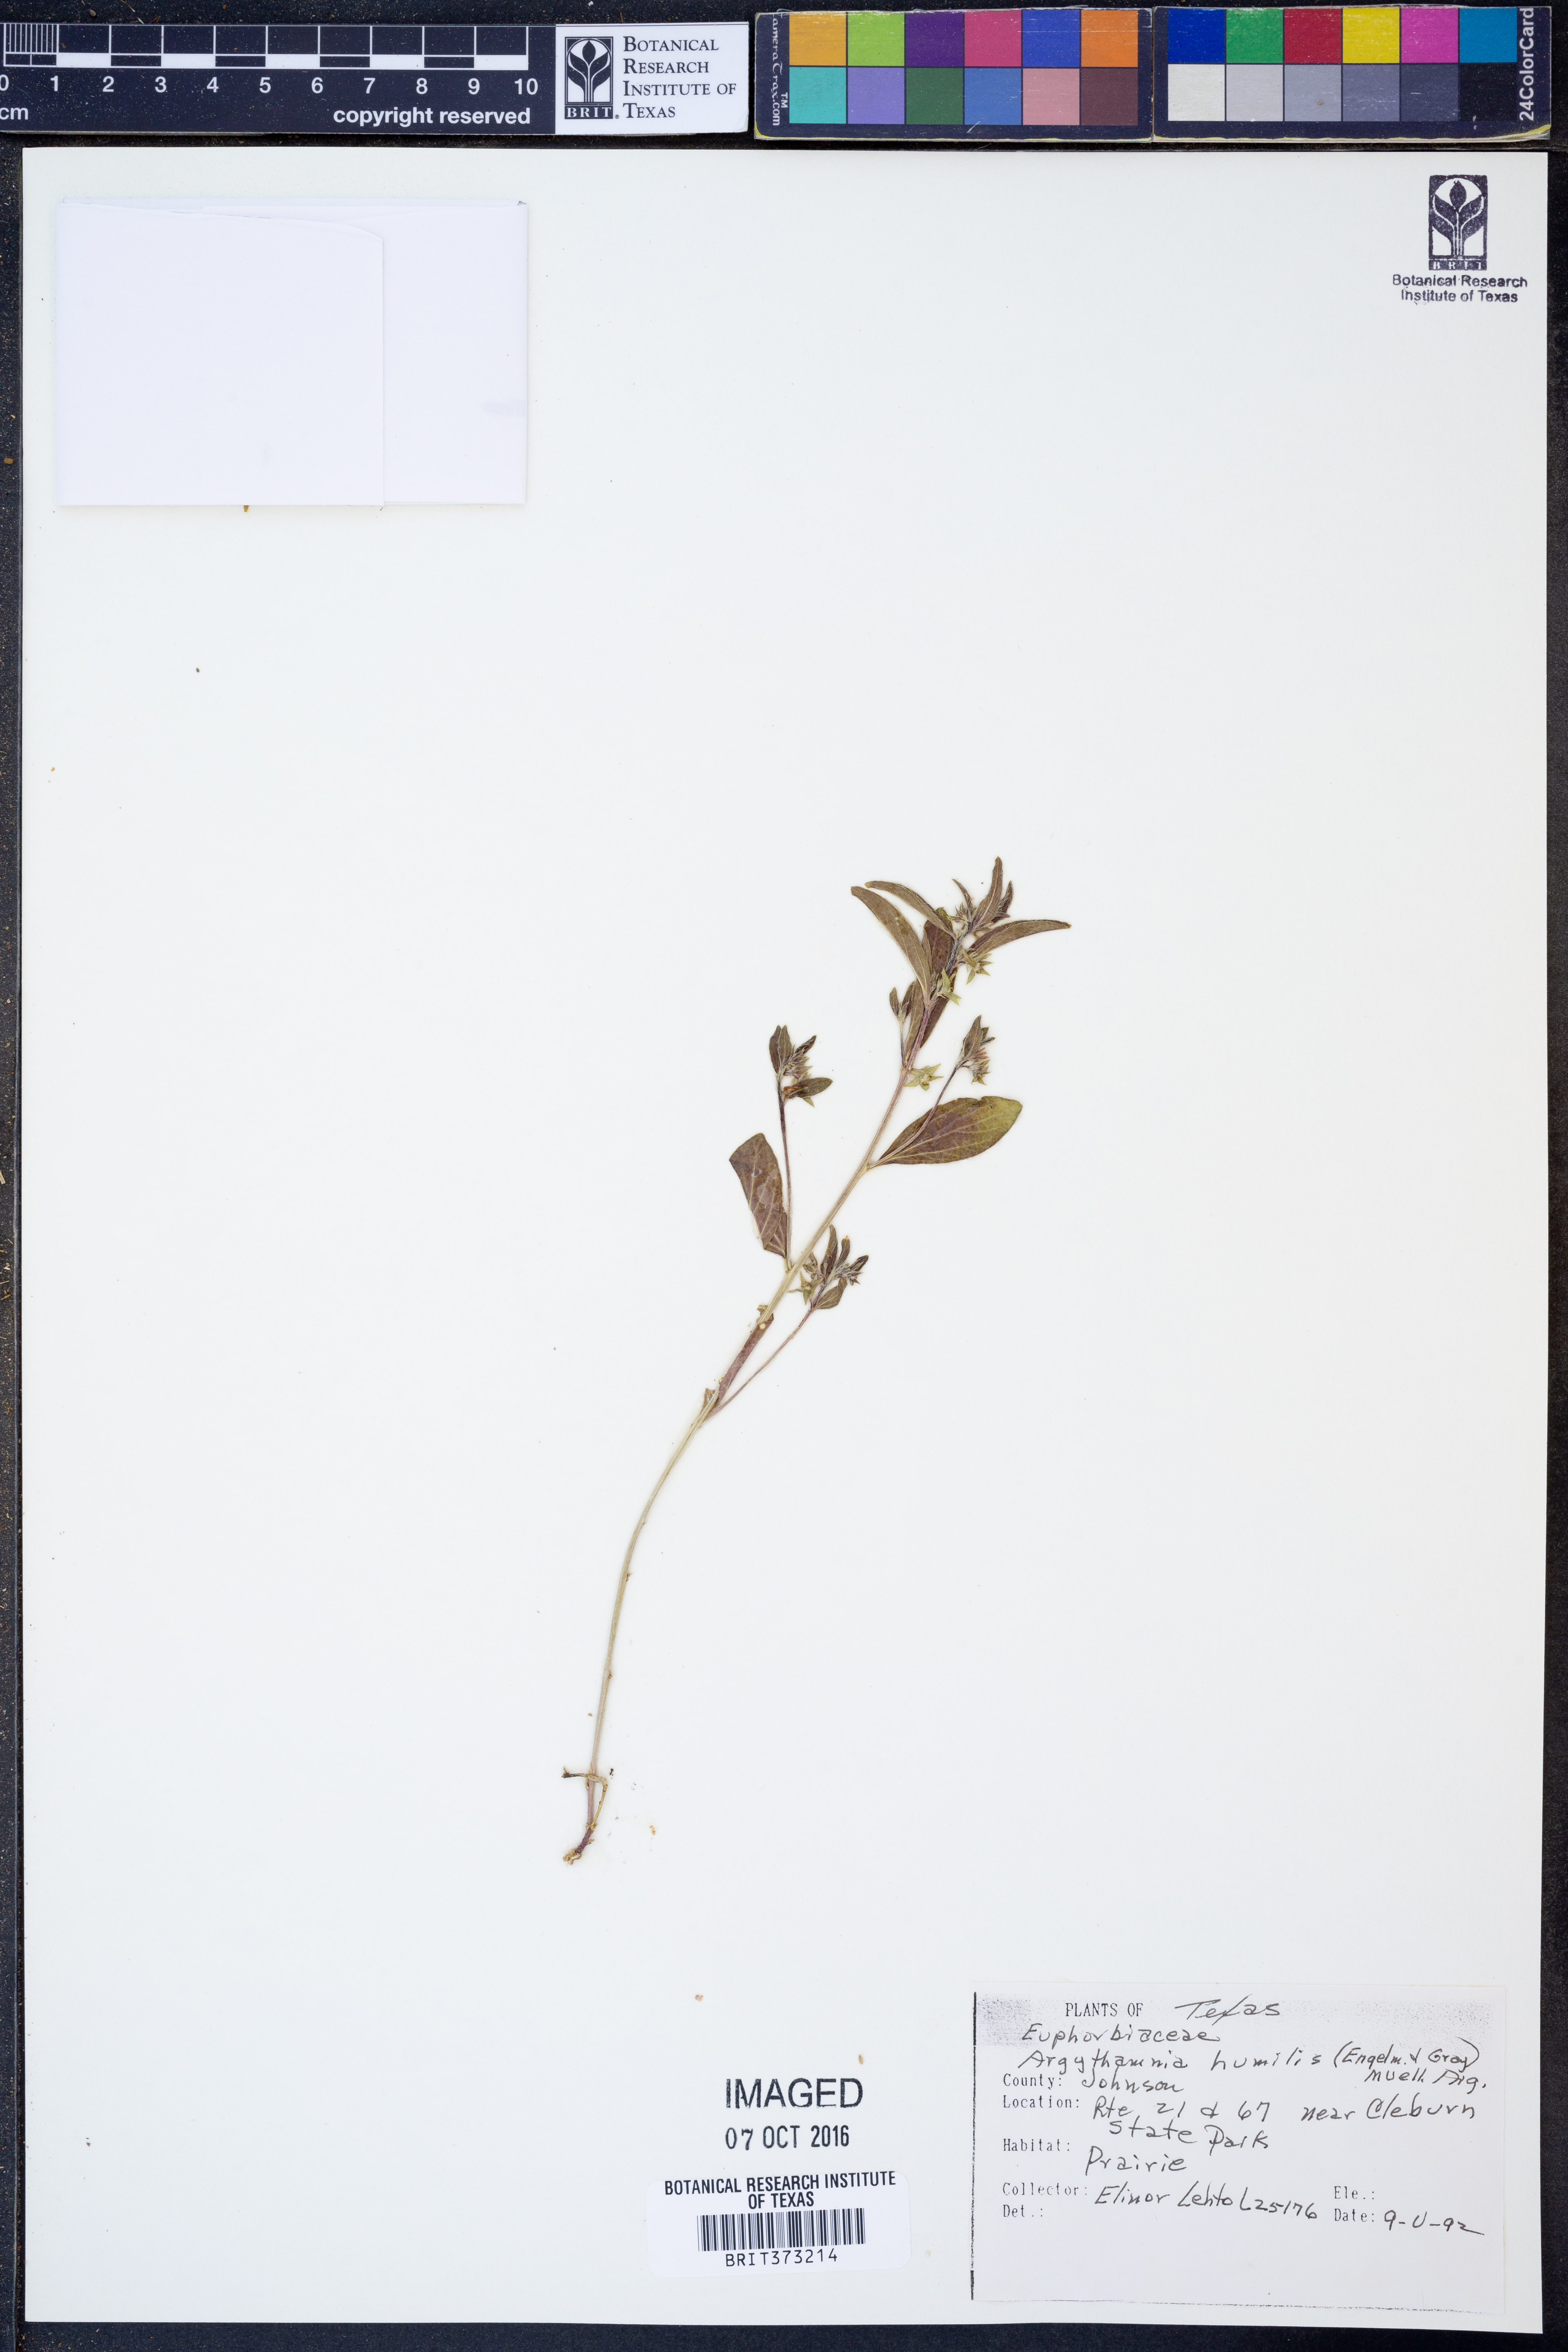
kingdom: Plantae
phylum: Tracheophyta
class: Magnoliopsida
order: Malpighiales
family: Euphorbiaceae
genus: Ditaxis
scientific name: Ditaxis humilis
